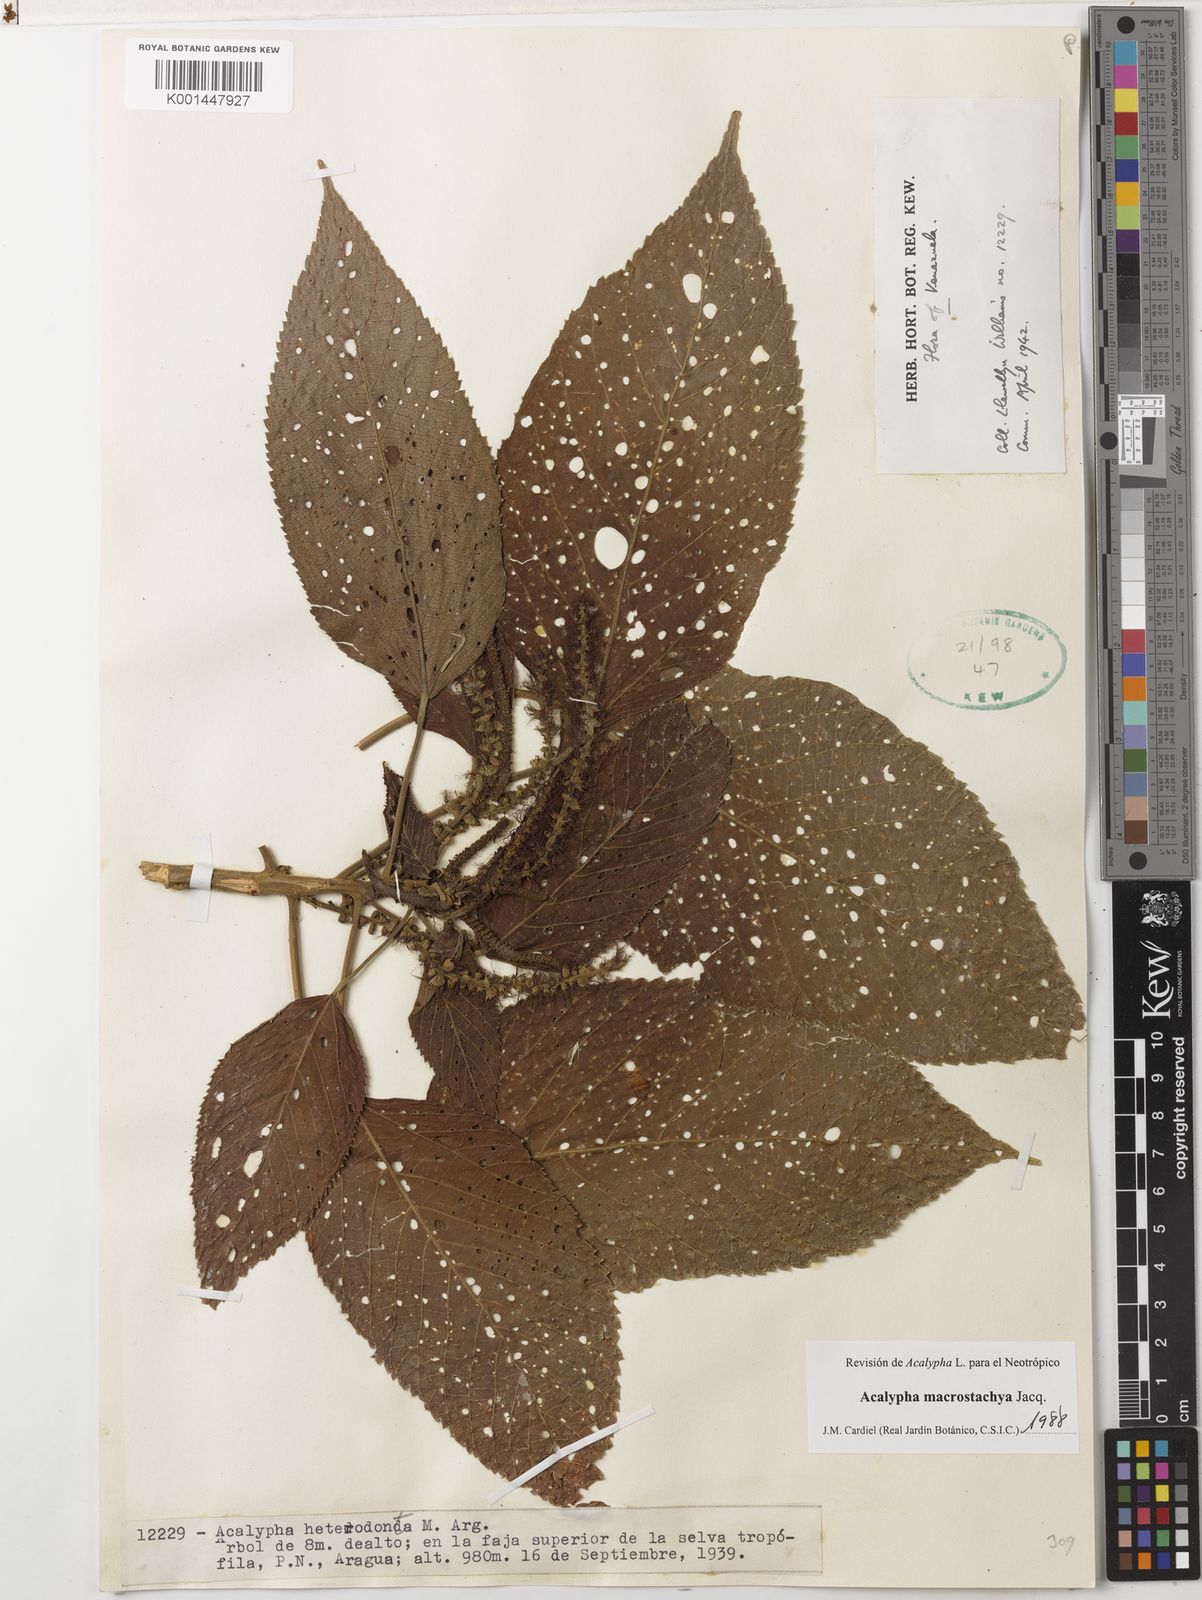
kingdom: Plantae
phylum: Tracheophyta
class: Magnoliopsida
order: Malpighiales
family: Euphorbiaceae
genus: Acalypha
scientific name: Acalypha macrostachya
